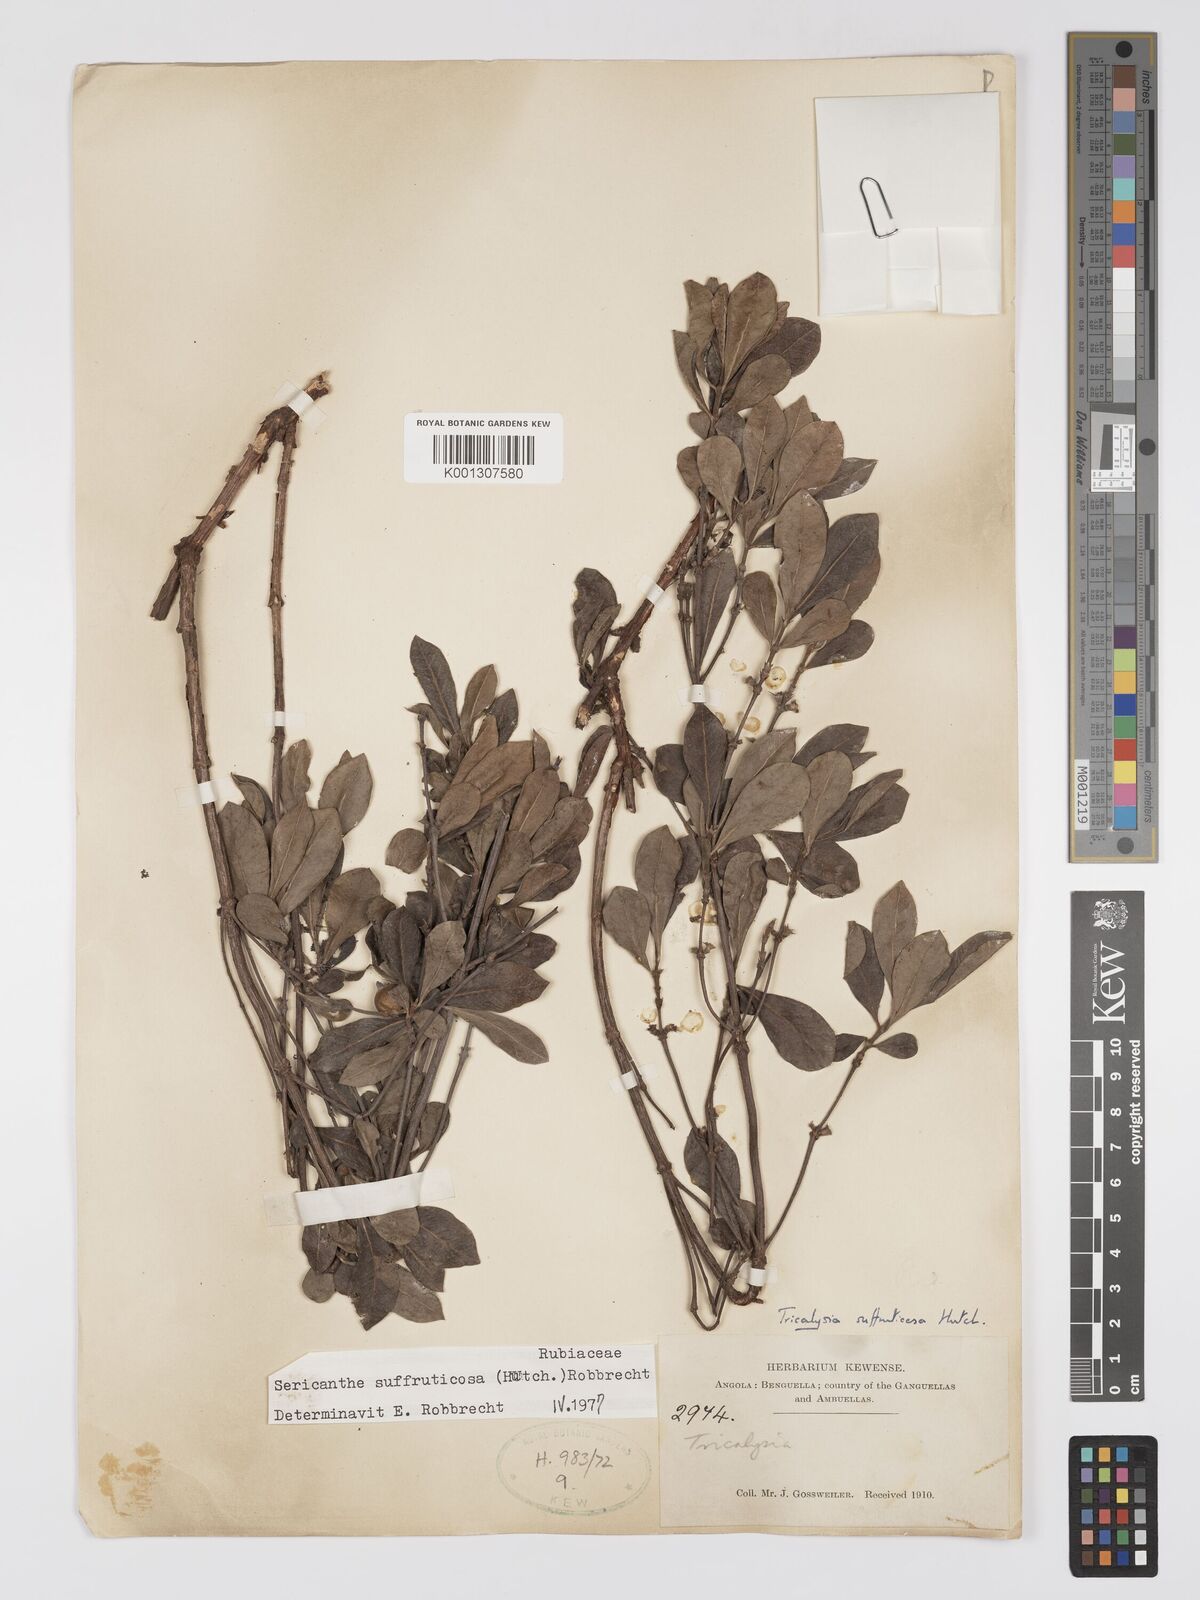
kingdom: Plantae
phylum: Tracheophyta
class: Magnoliopsida
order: Gentianales
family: Rubiaceae
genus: Sericanthe
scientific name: Sericanthe suffruticosa
